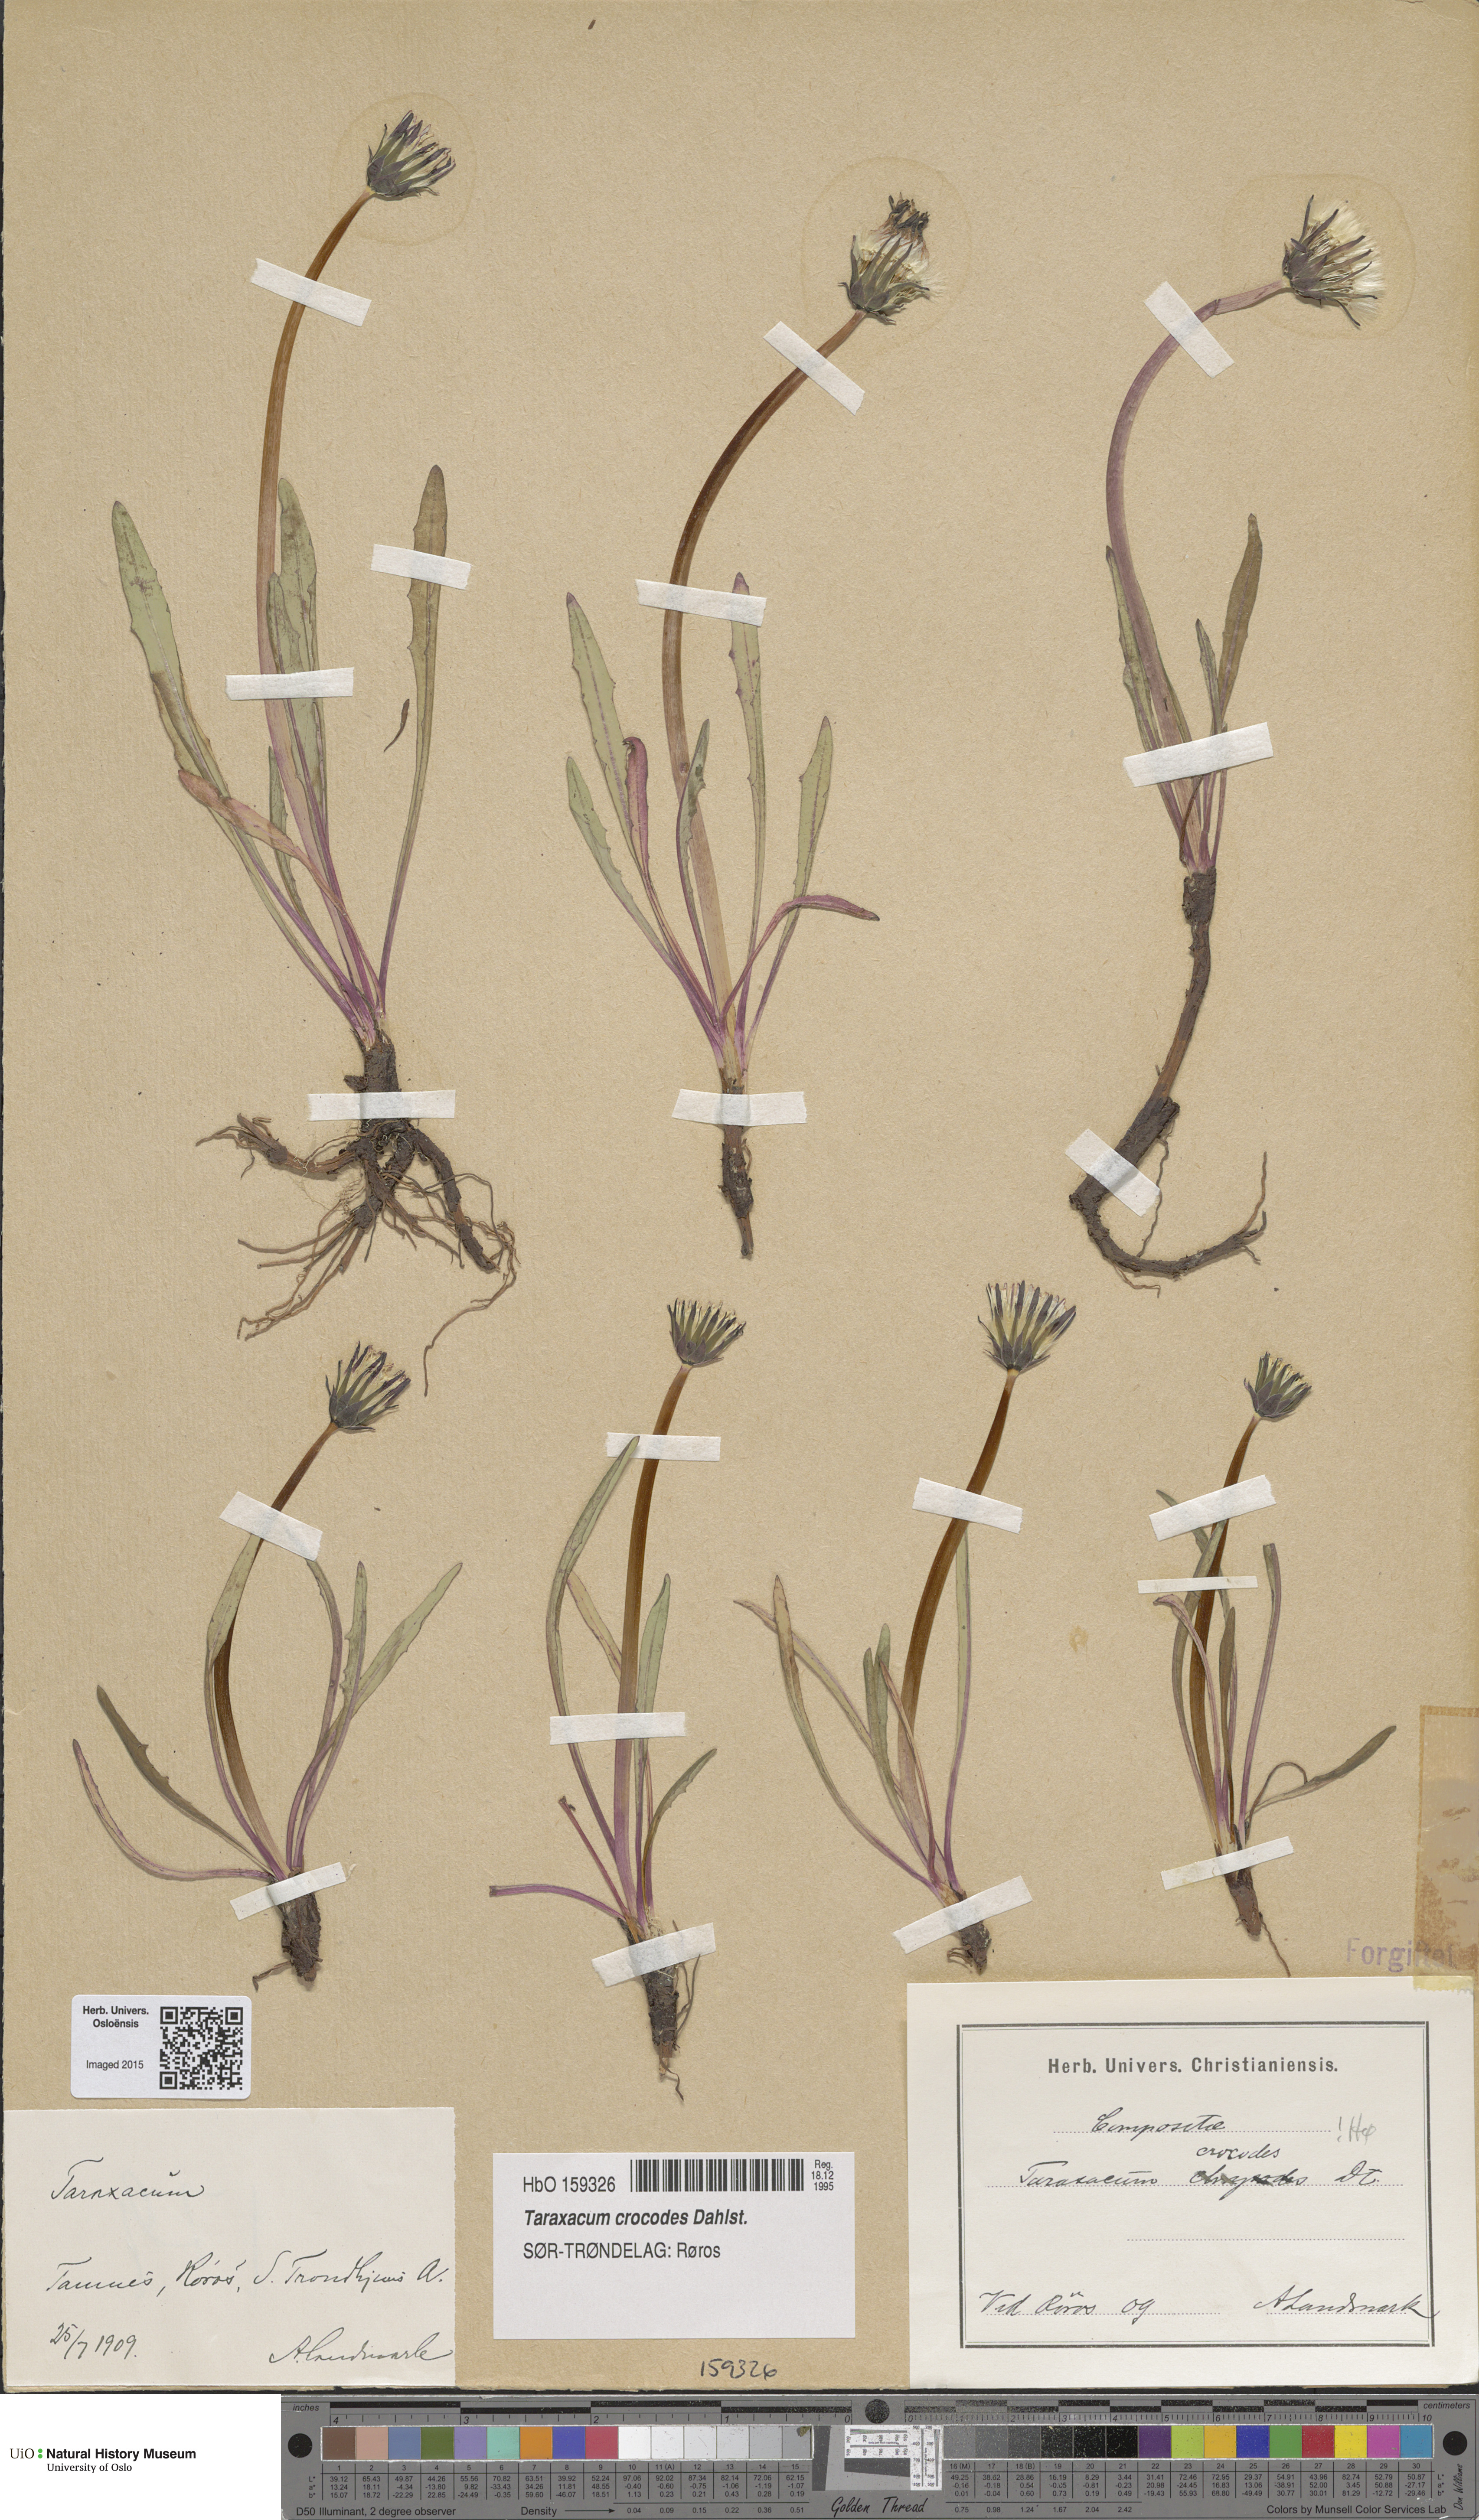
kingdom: Plantae
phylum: Tracheophyta
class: Magnoliopsida
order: Asterales
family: Asteraceae
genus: Taraxacum
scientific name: Taraxacum crocodes
